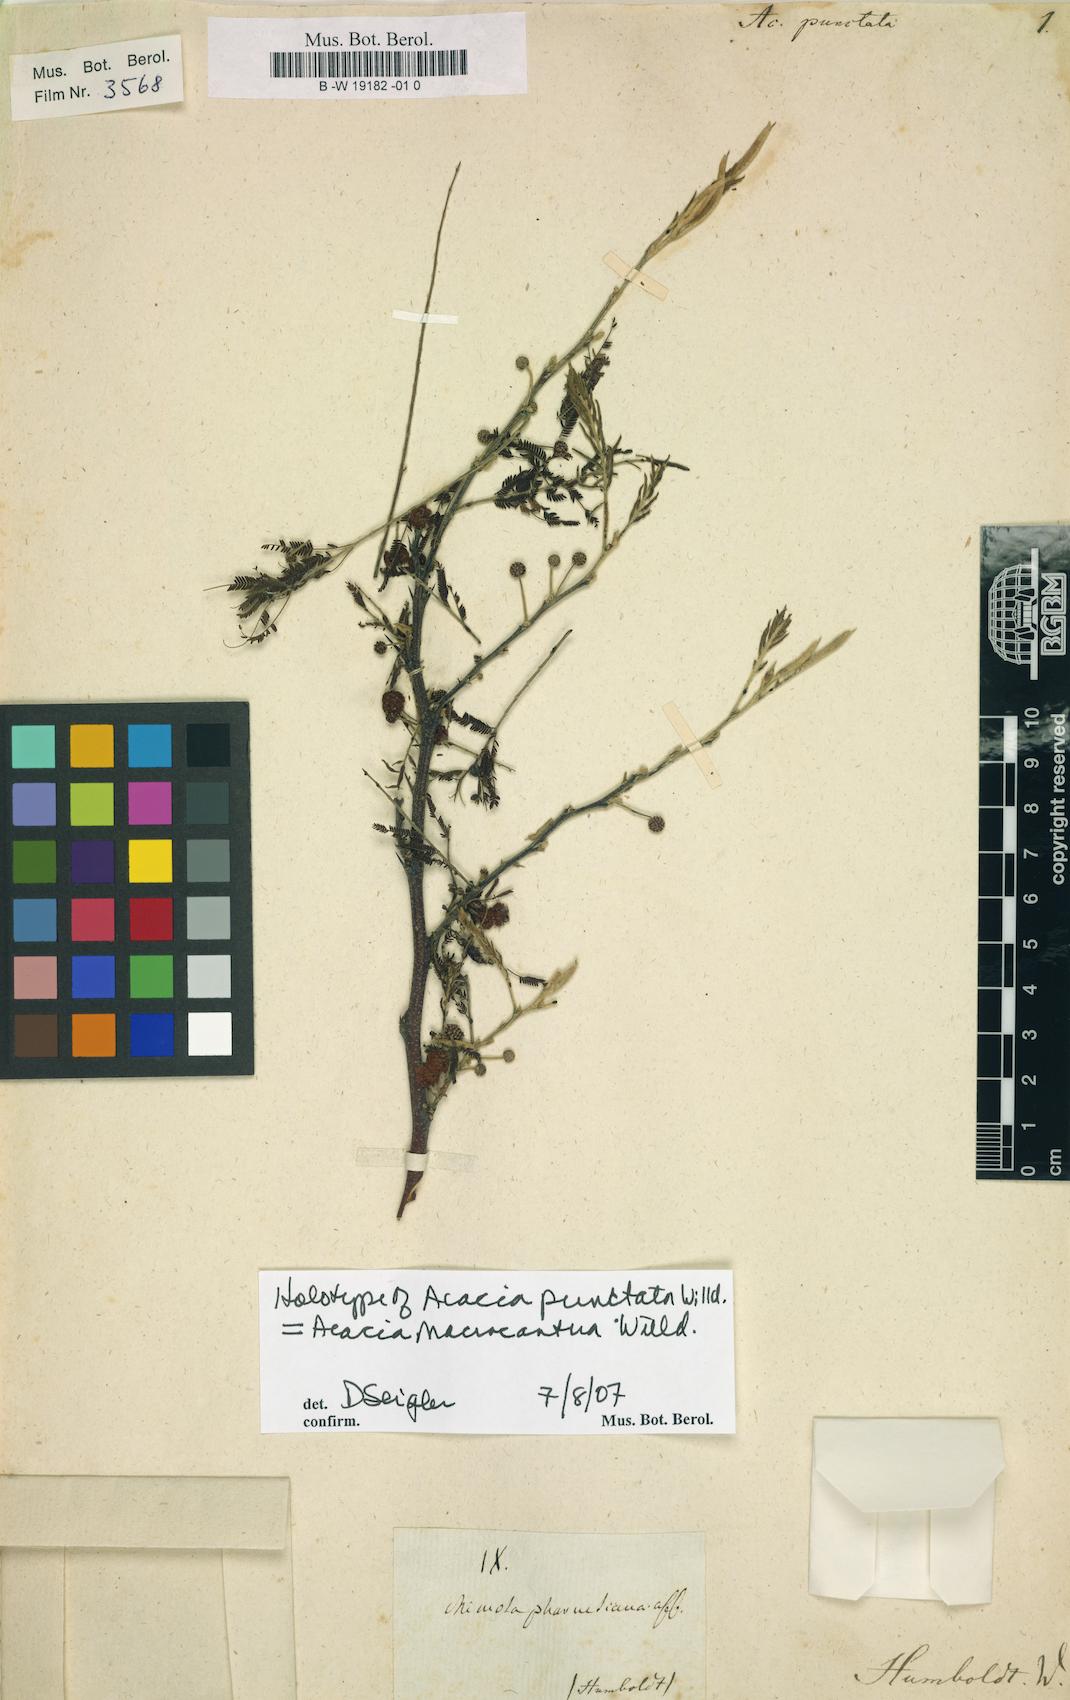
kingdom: Plantae
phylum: Tracheophyta
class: Magnoliopsida
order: Fabales
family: Fabaceae
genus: Vachellia
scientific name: Vachellia macracantha
